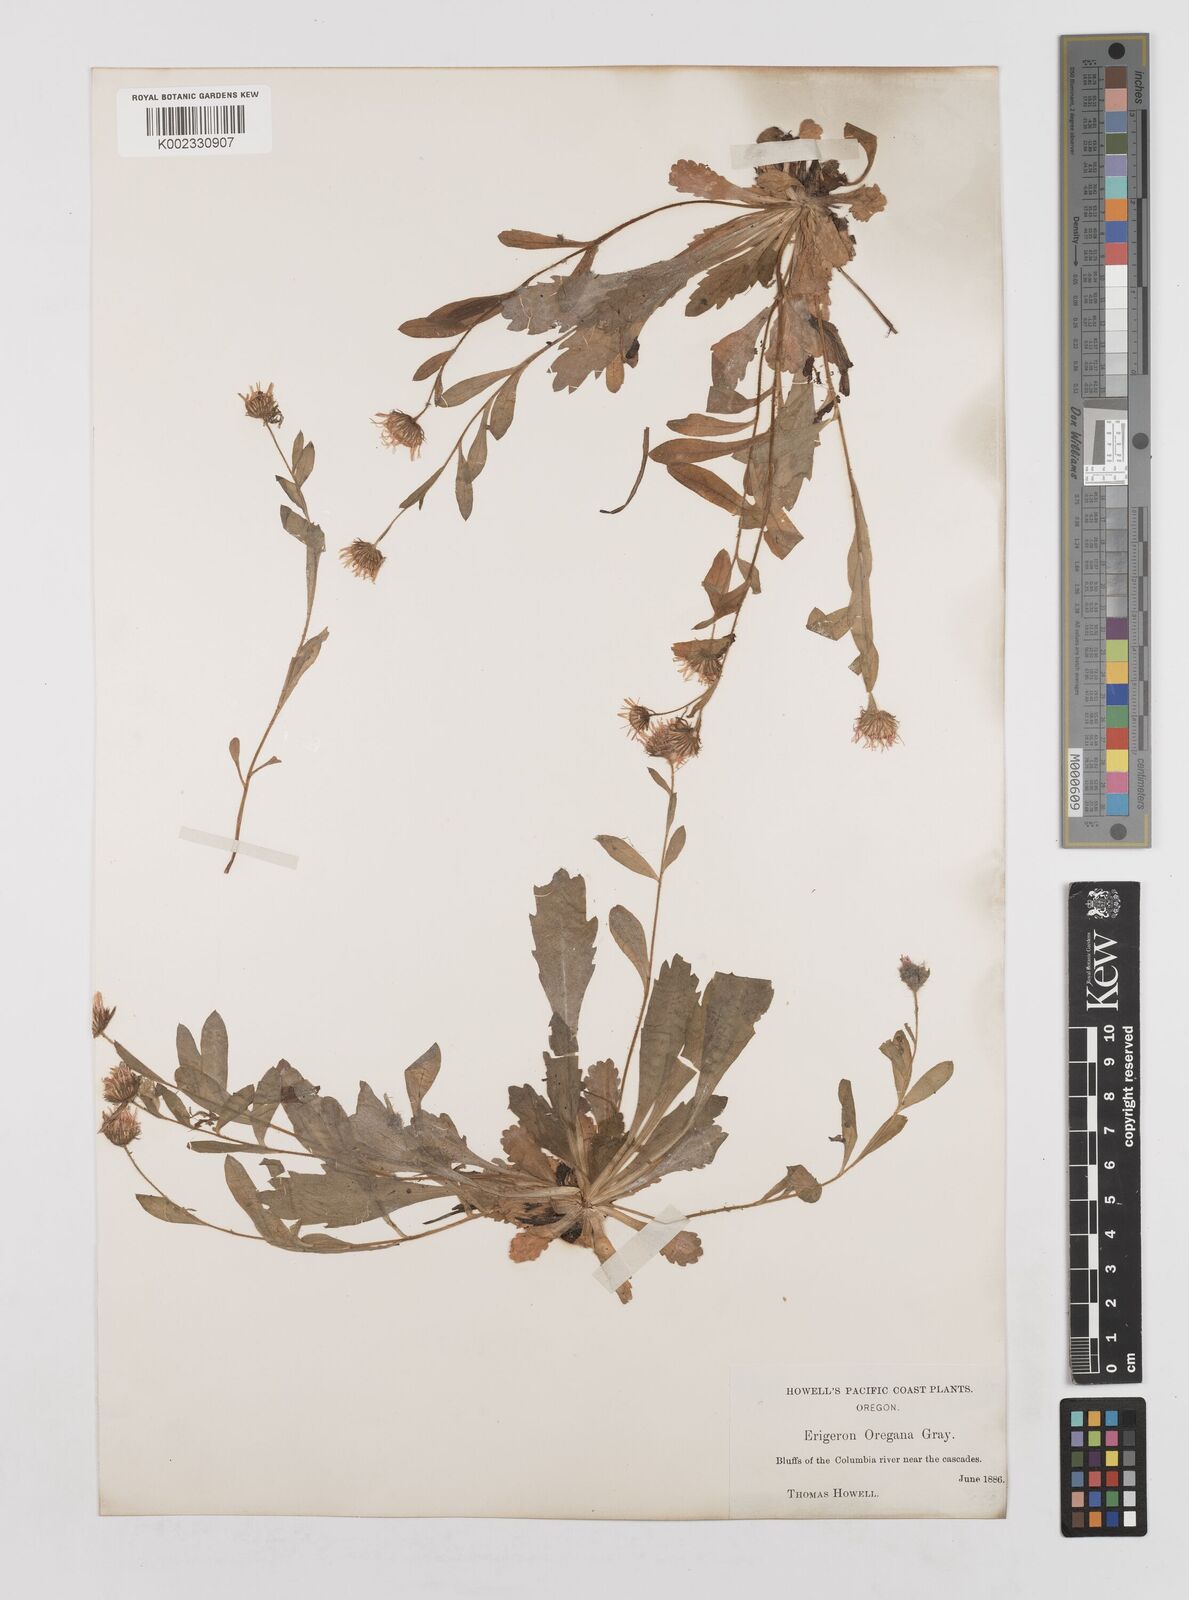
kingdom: Plantae
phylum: Tracheophyta
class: Magnoliopsida
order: Asterales
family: Asteraceae
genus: Erigeron
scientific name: Erigeron oreganus
